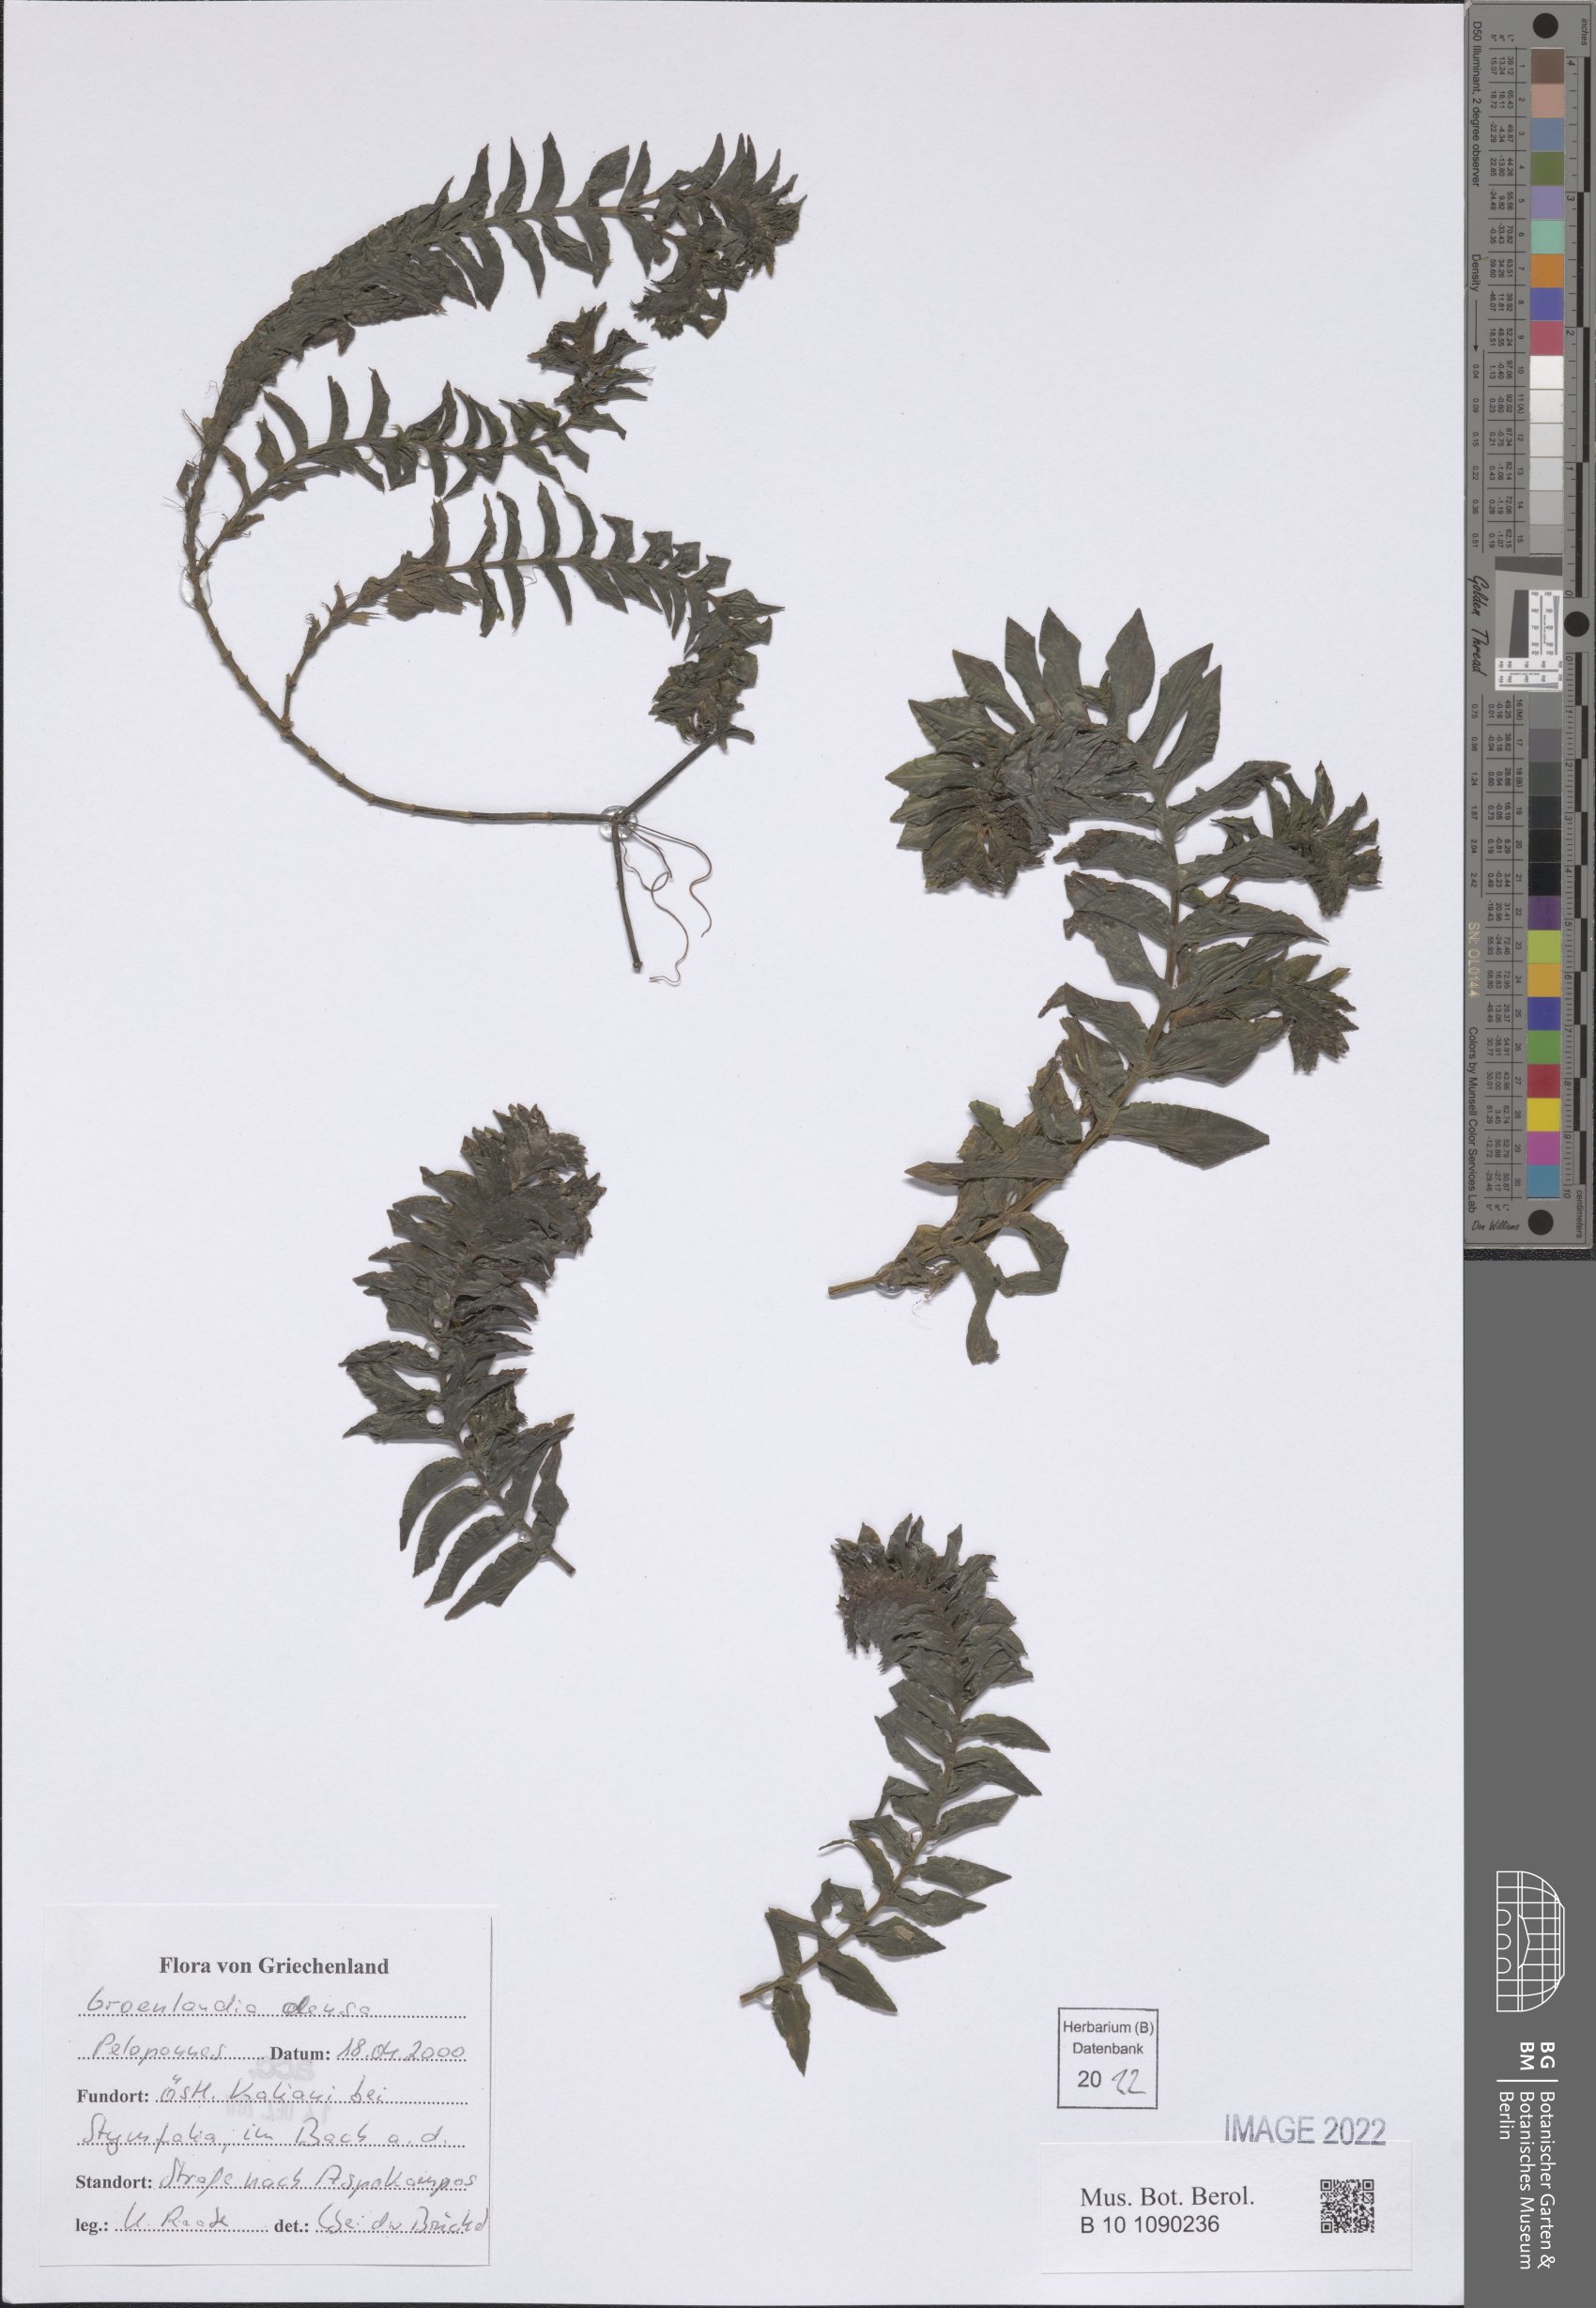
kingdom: Plantae
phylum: Tracheophyta
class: Liliopsida
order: Alismatales
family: Potamogetonaceae
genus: Groenlandia
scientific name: Groenlandia densa
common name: Opposite-leaved pondweed
